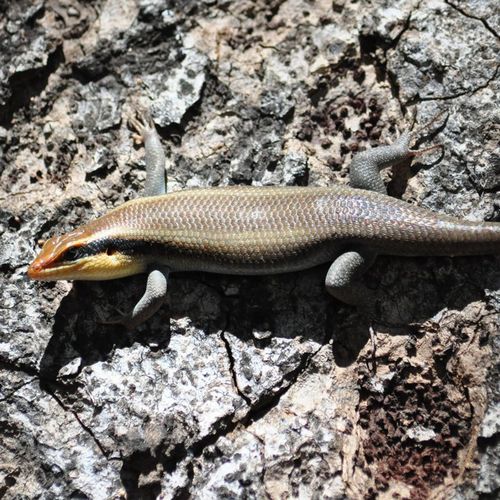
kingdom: Animalia
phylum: Chordata
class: Squamata
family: Scincidae
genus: Trachylepis
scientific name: Trachylepis striata
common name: African striped mabuya
